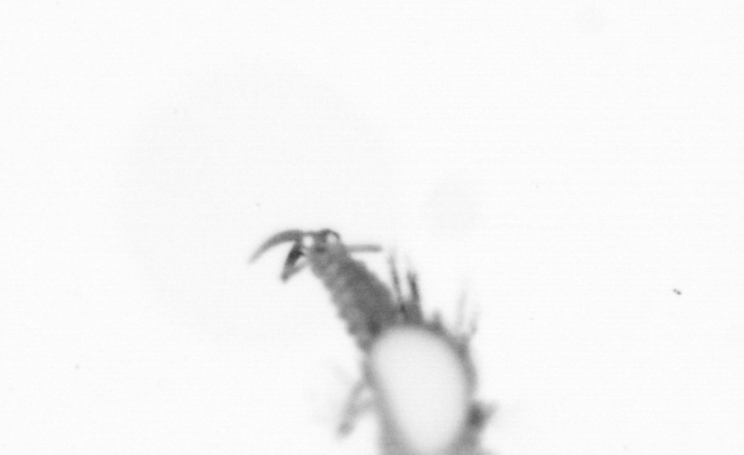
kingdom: Animalia
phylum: Annelida
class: Polychaeta
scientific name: Polychaeta
